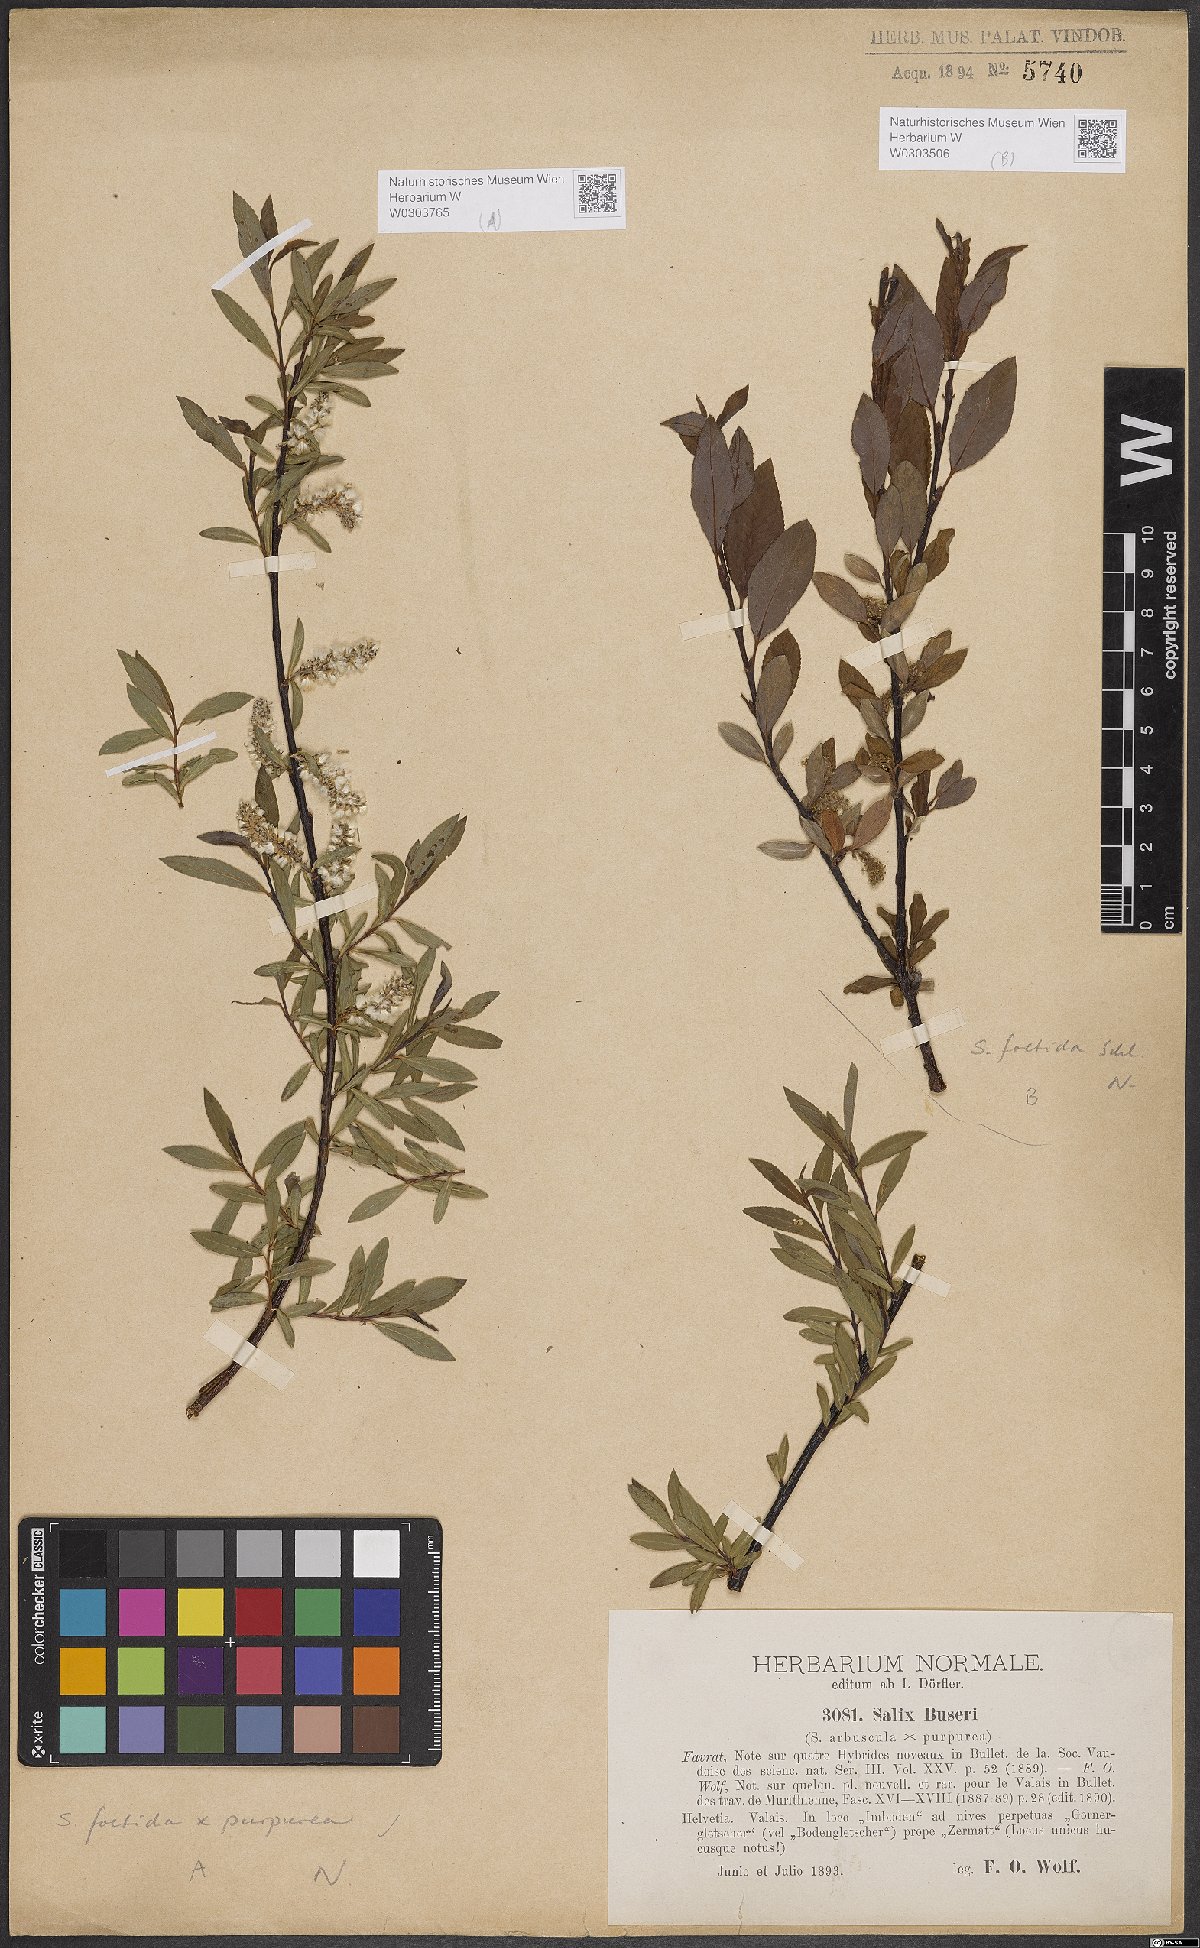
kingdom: Plantae
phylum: Tracheophyta
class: Magnoliopsida
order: Malpighiales
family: Salicaceae
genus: Salix
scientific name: Salix foetida
